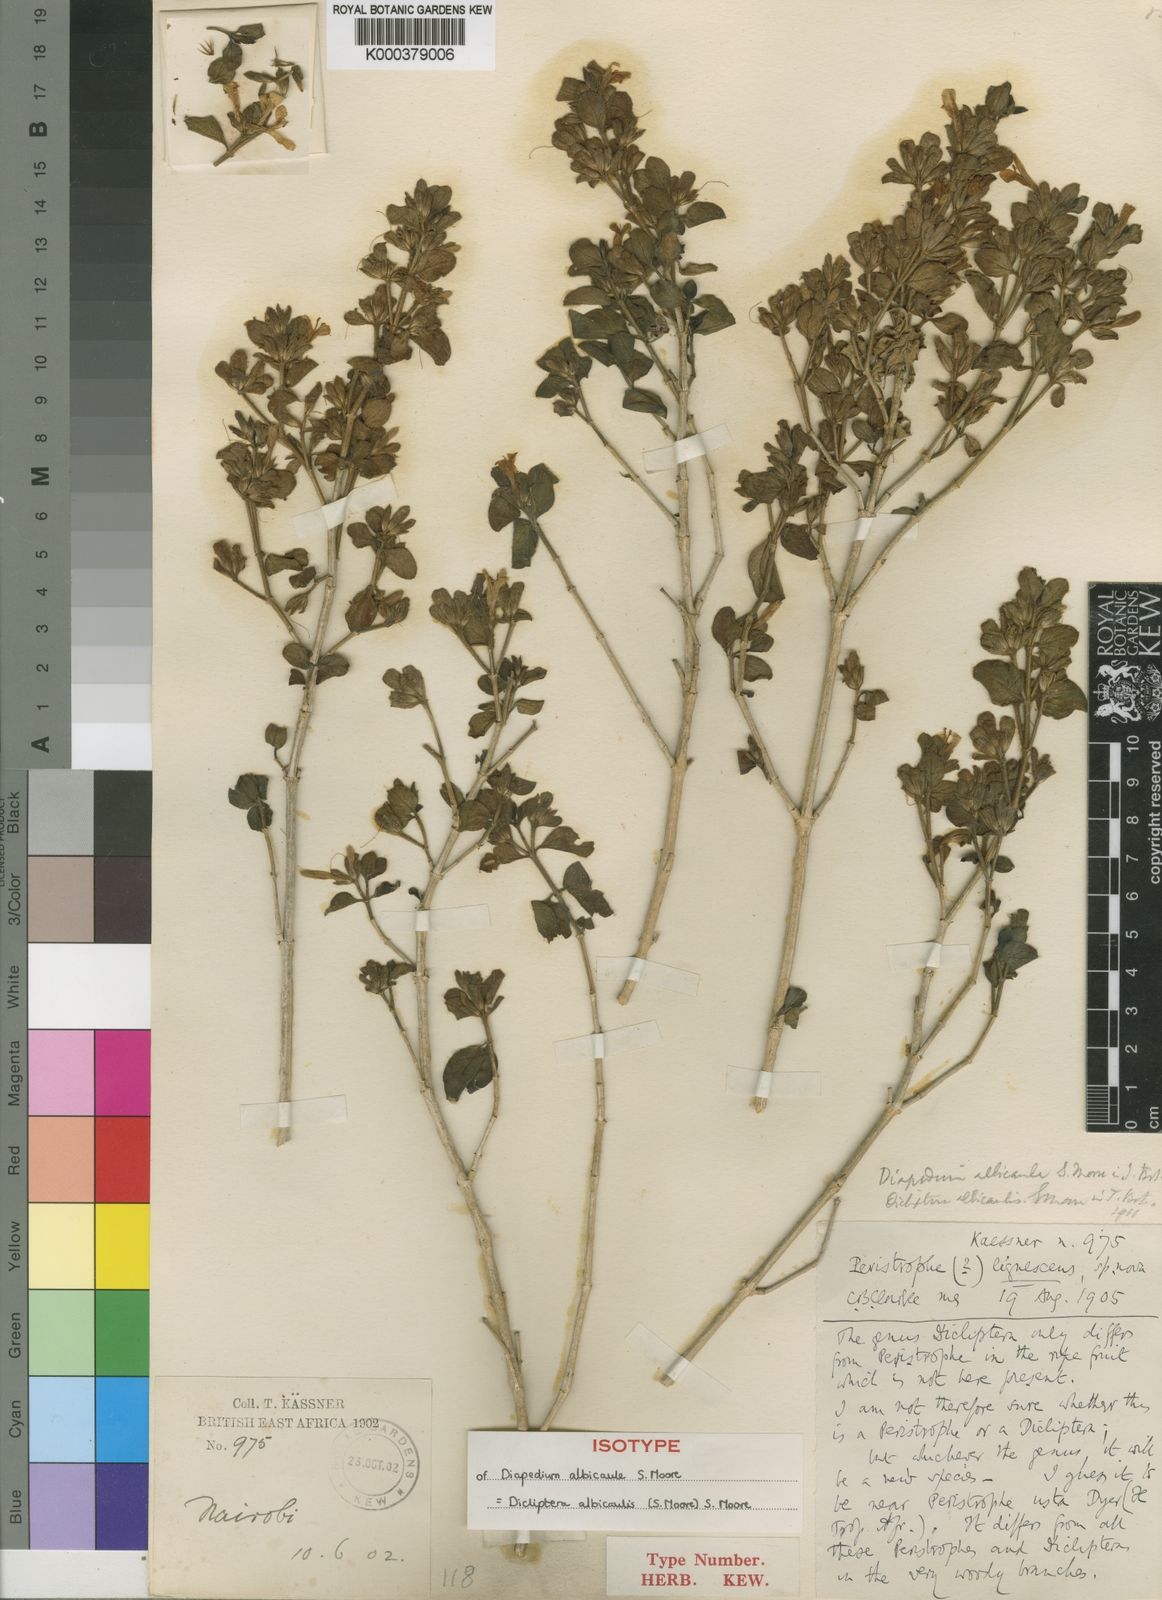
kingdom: Plantae
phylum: Tracheophyta
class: Magnoliopsida
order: Lamiales
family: Acanthaceae
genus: Dicliptera
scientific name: Dicliptera albicaulis
